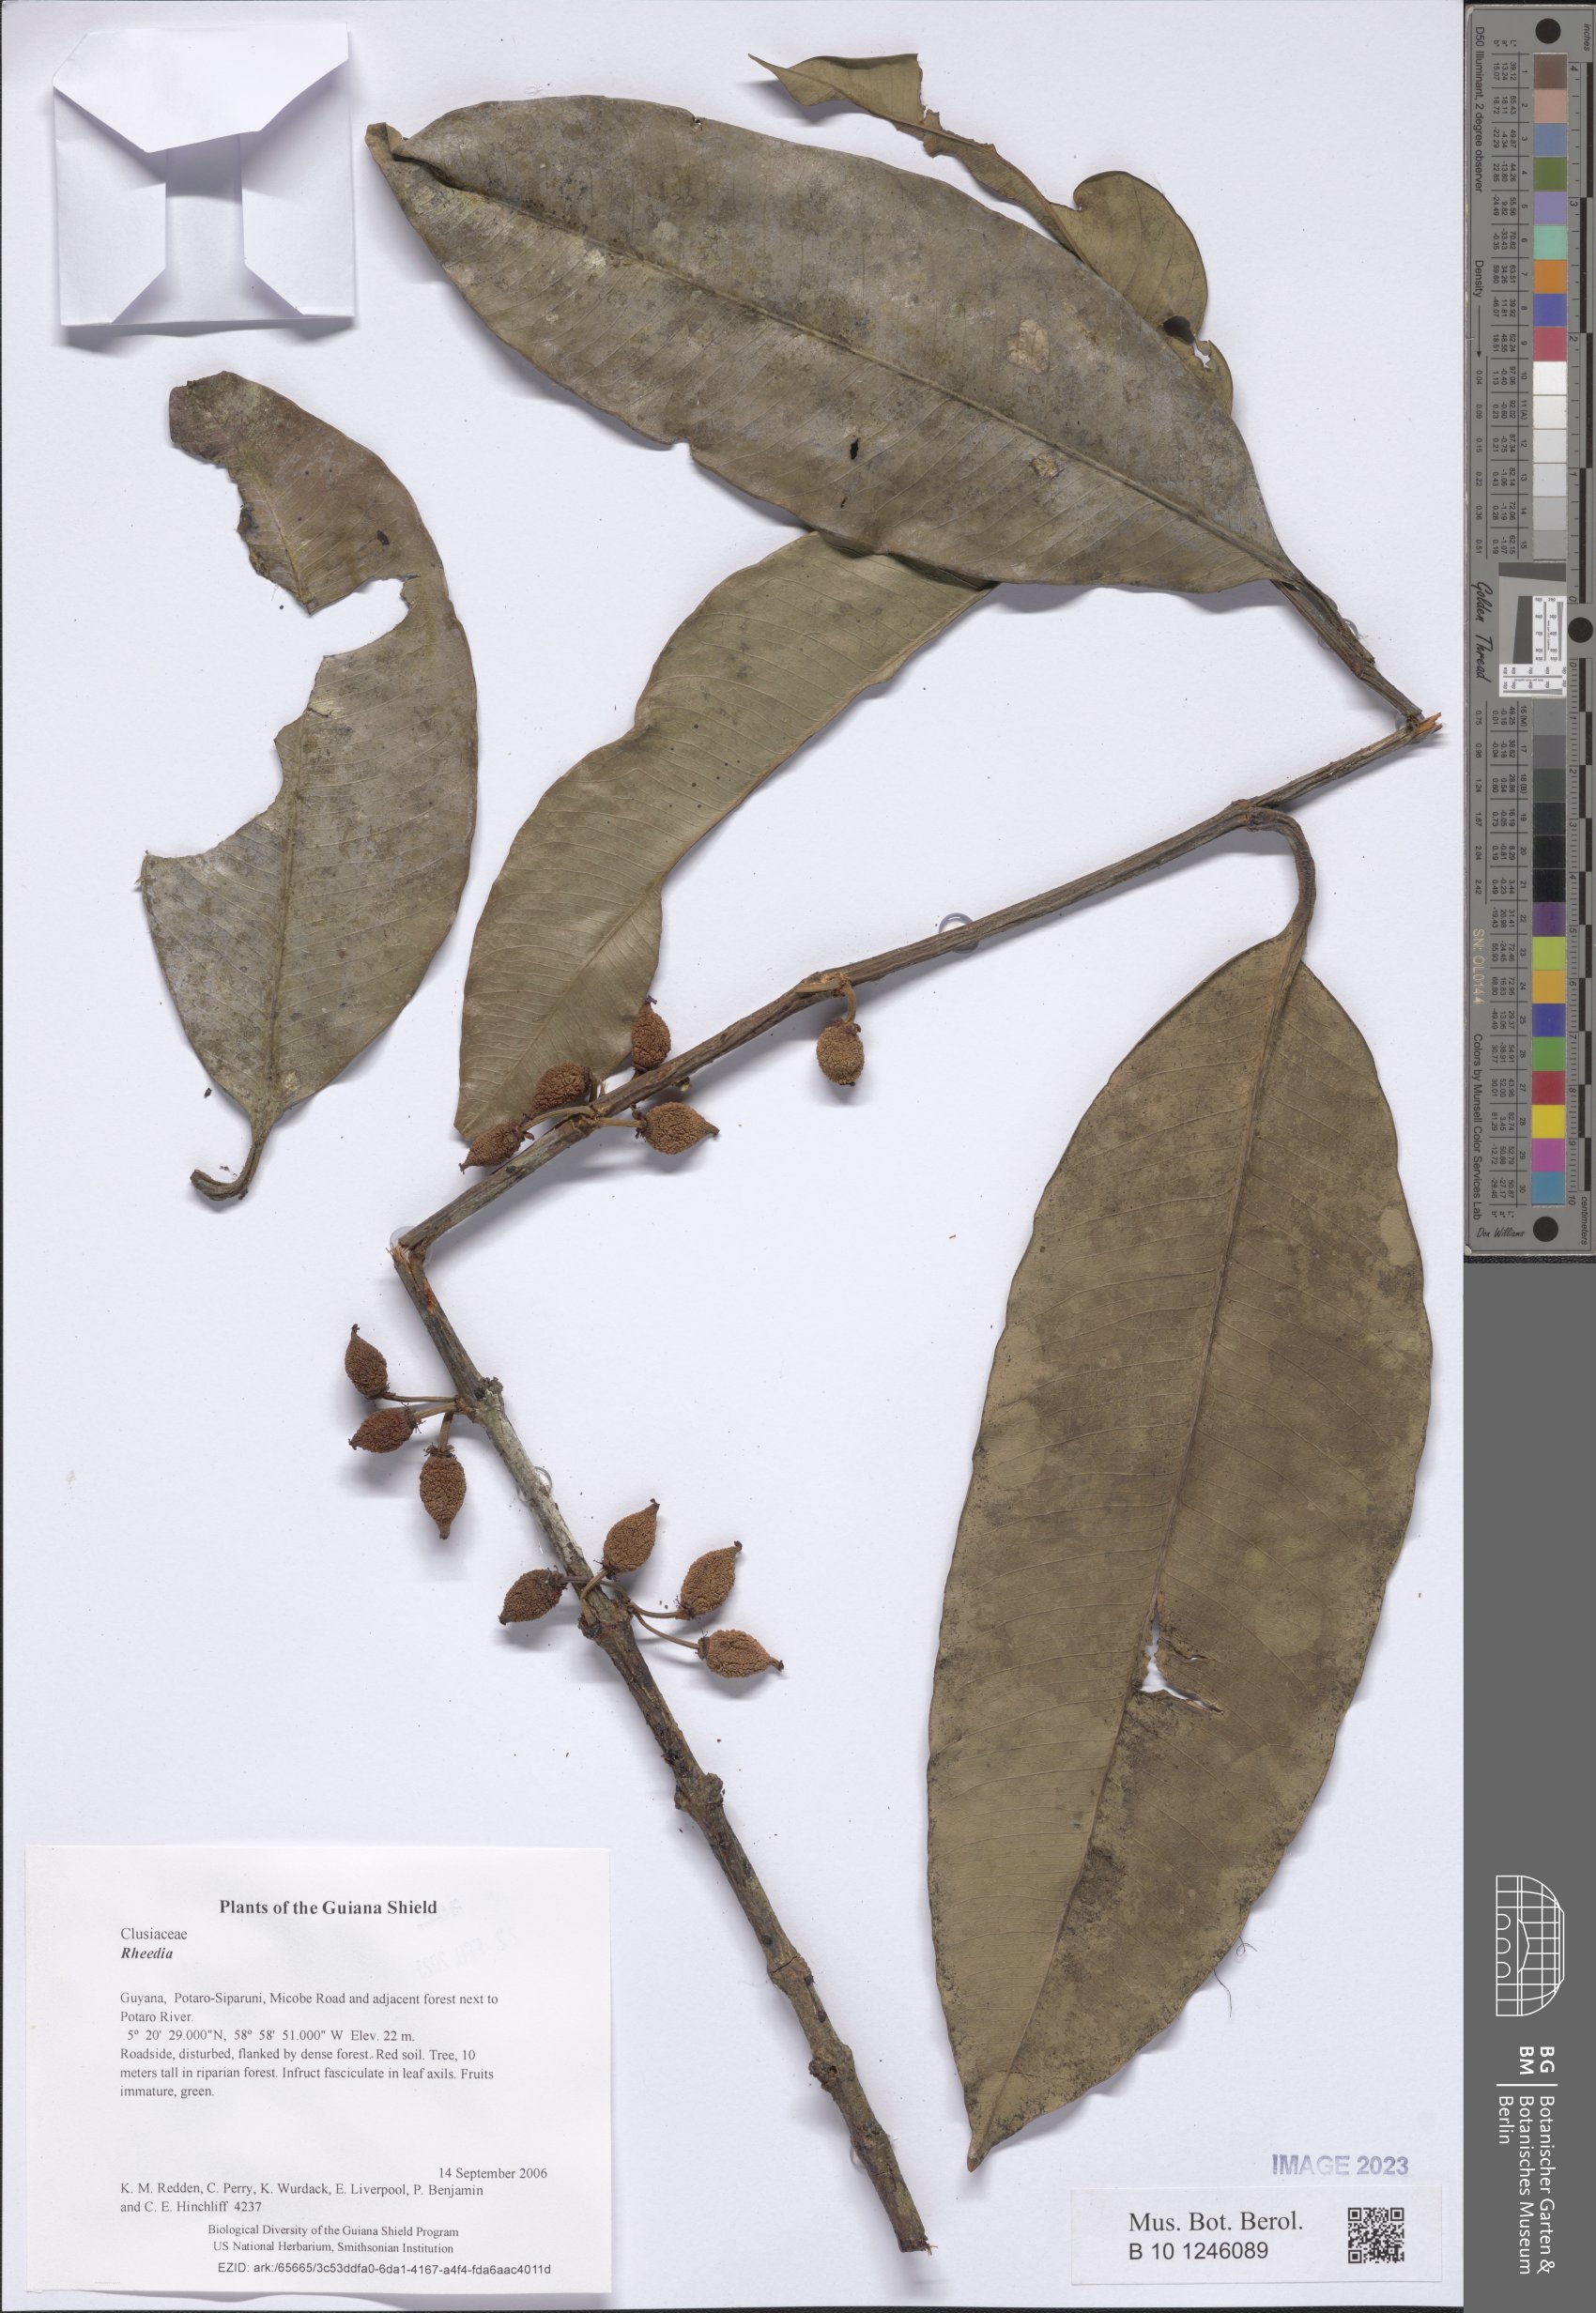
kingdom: Plantae
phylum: Tracheophyta
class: Magnoliopsida
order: Malpighiales
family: Clusiaceae
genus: Garcinia
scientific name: Garcinia
